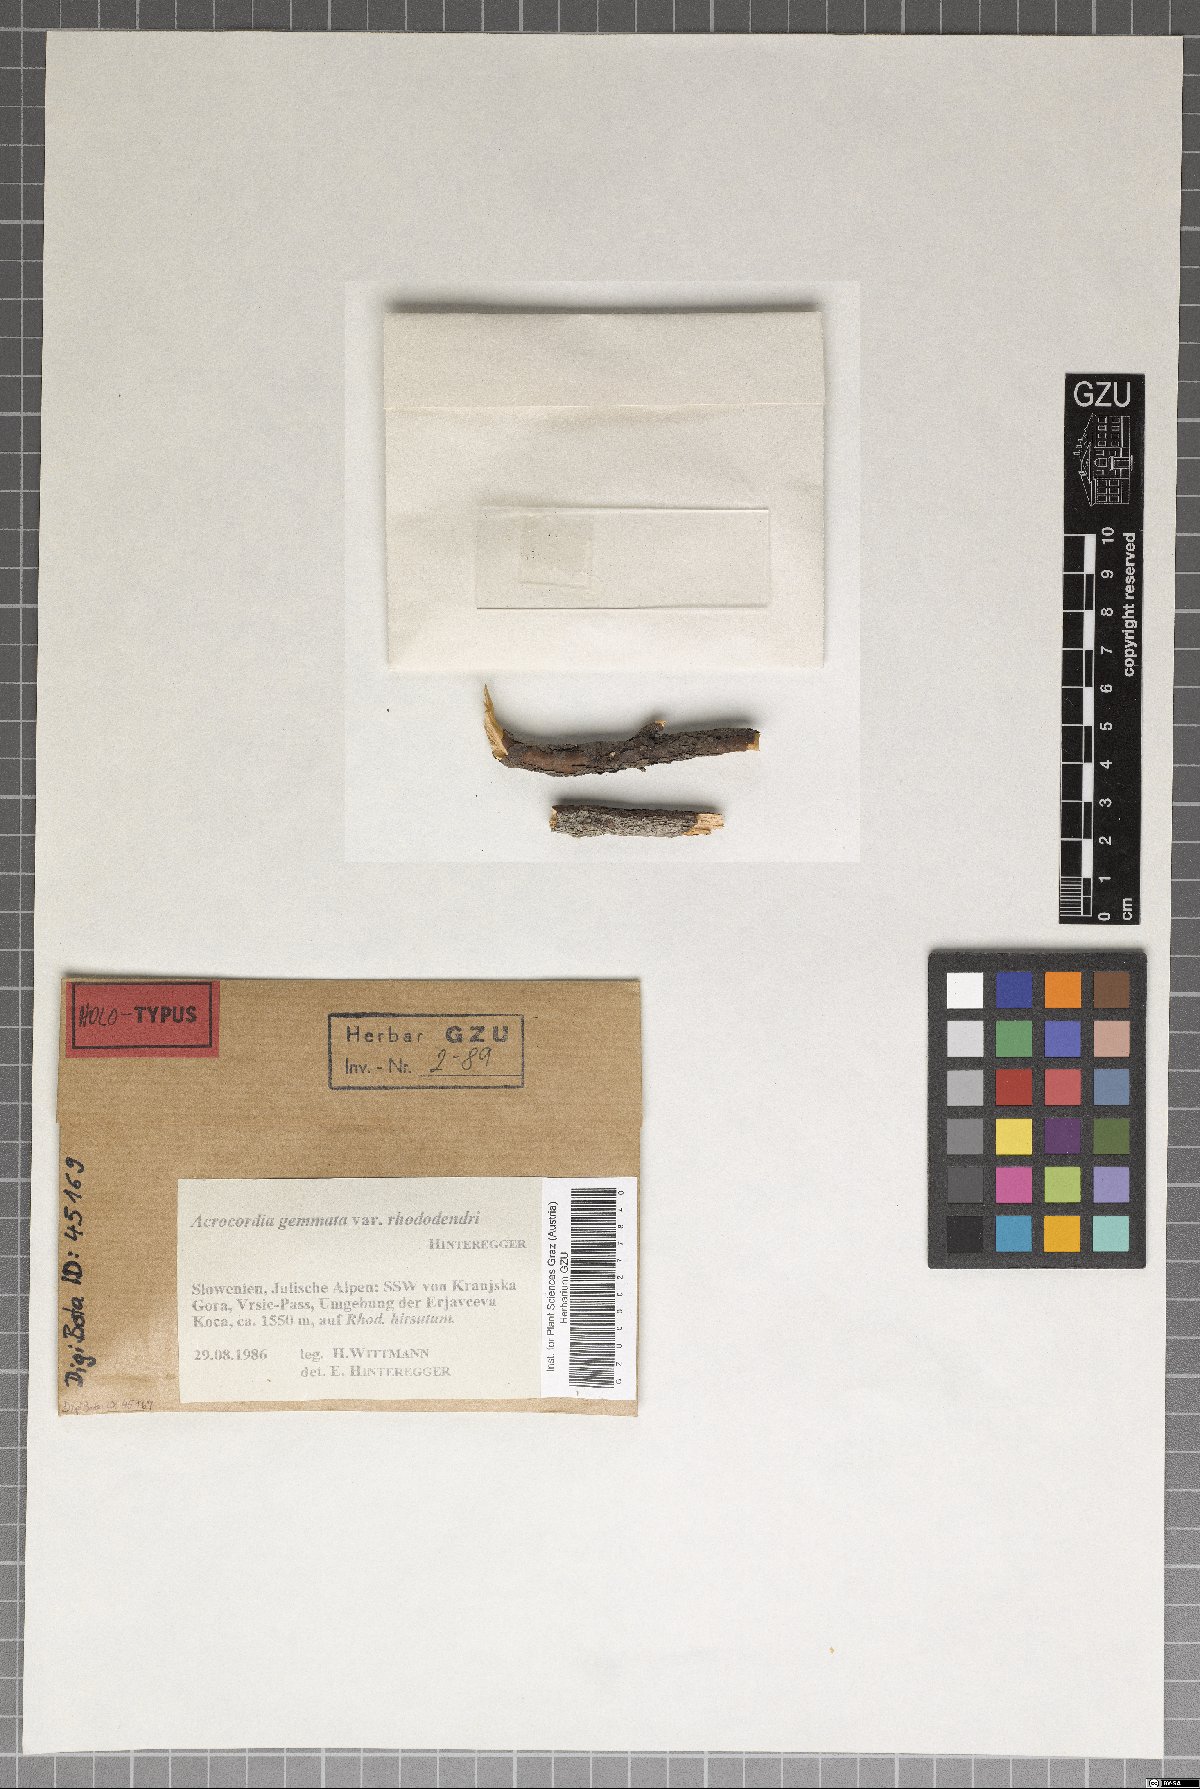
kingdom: Fungi
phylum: Ascomycota
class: Dothideomycetes
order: Monoblastiales
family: Monoblastiaceae
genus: Acrocordia
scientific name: Acrocordia gemmata
